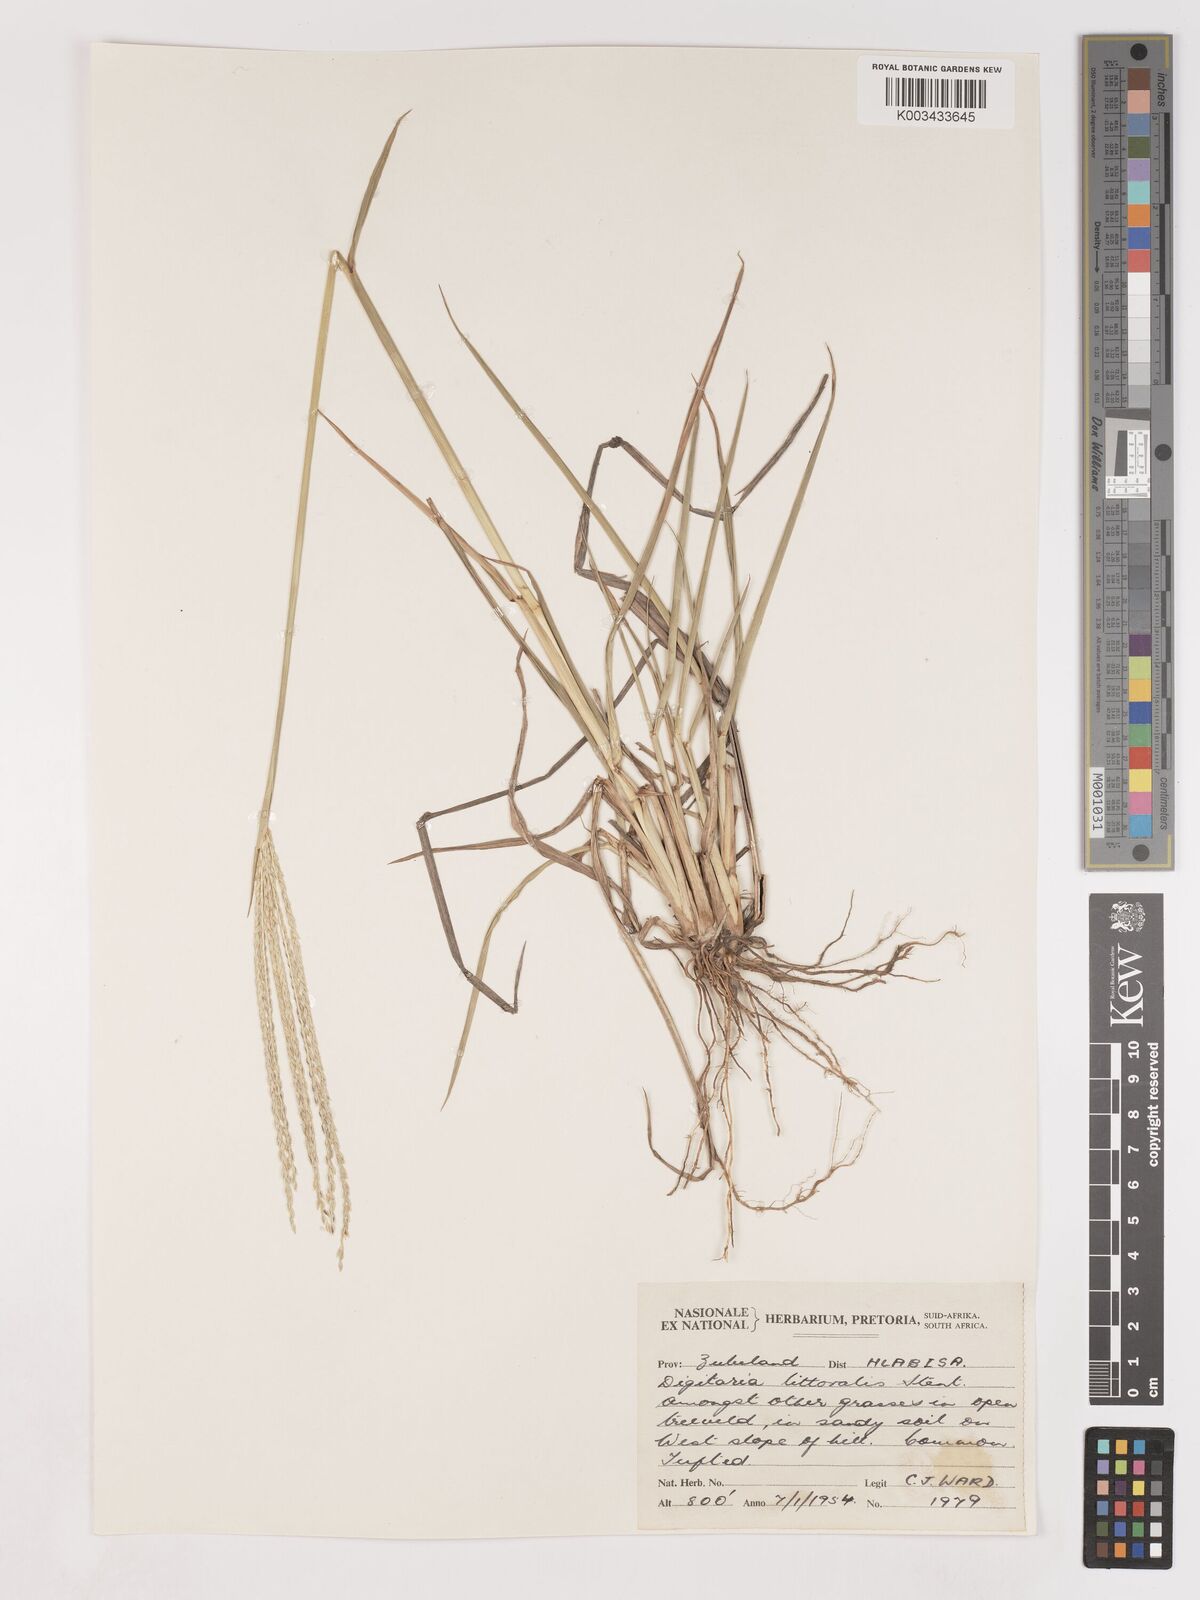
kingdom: Plantae
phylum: Tracheophyta
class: Liliopsida
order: Poales
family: Poaceae
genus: Digitaria
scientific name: Digitaria natalensis
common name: Coast finger grass
